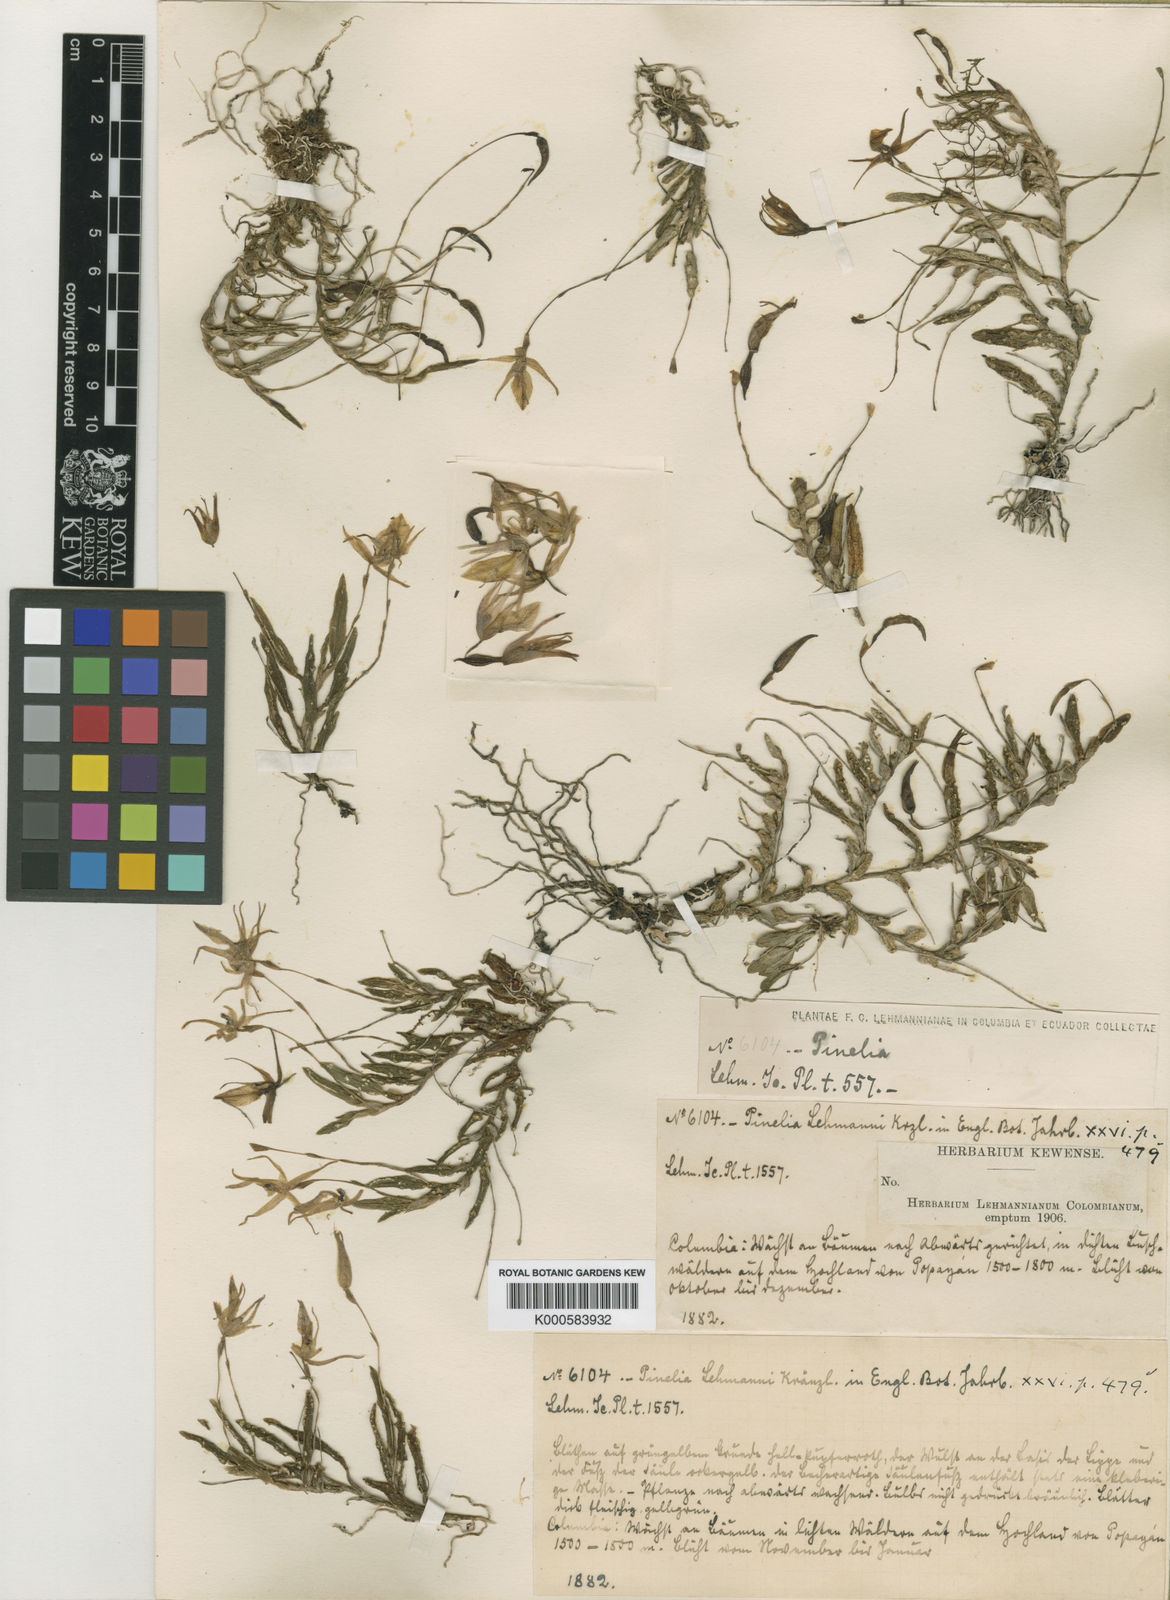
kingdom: Plantae
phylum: Tracheophyta
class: Liliopsida
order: Asparagales
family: Orchidaceae
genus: Homalopetalum
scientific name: Homalopetalum pumilio
